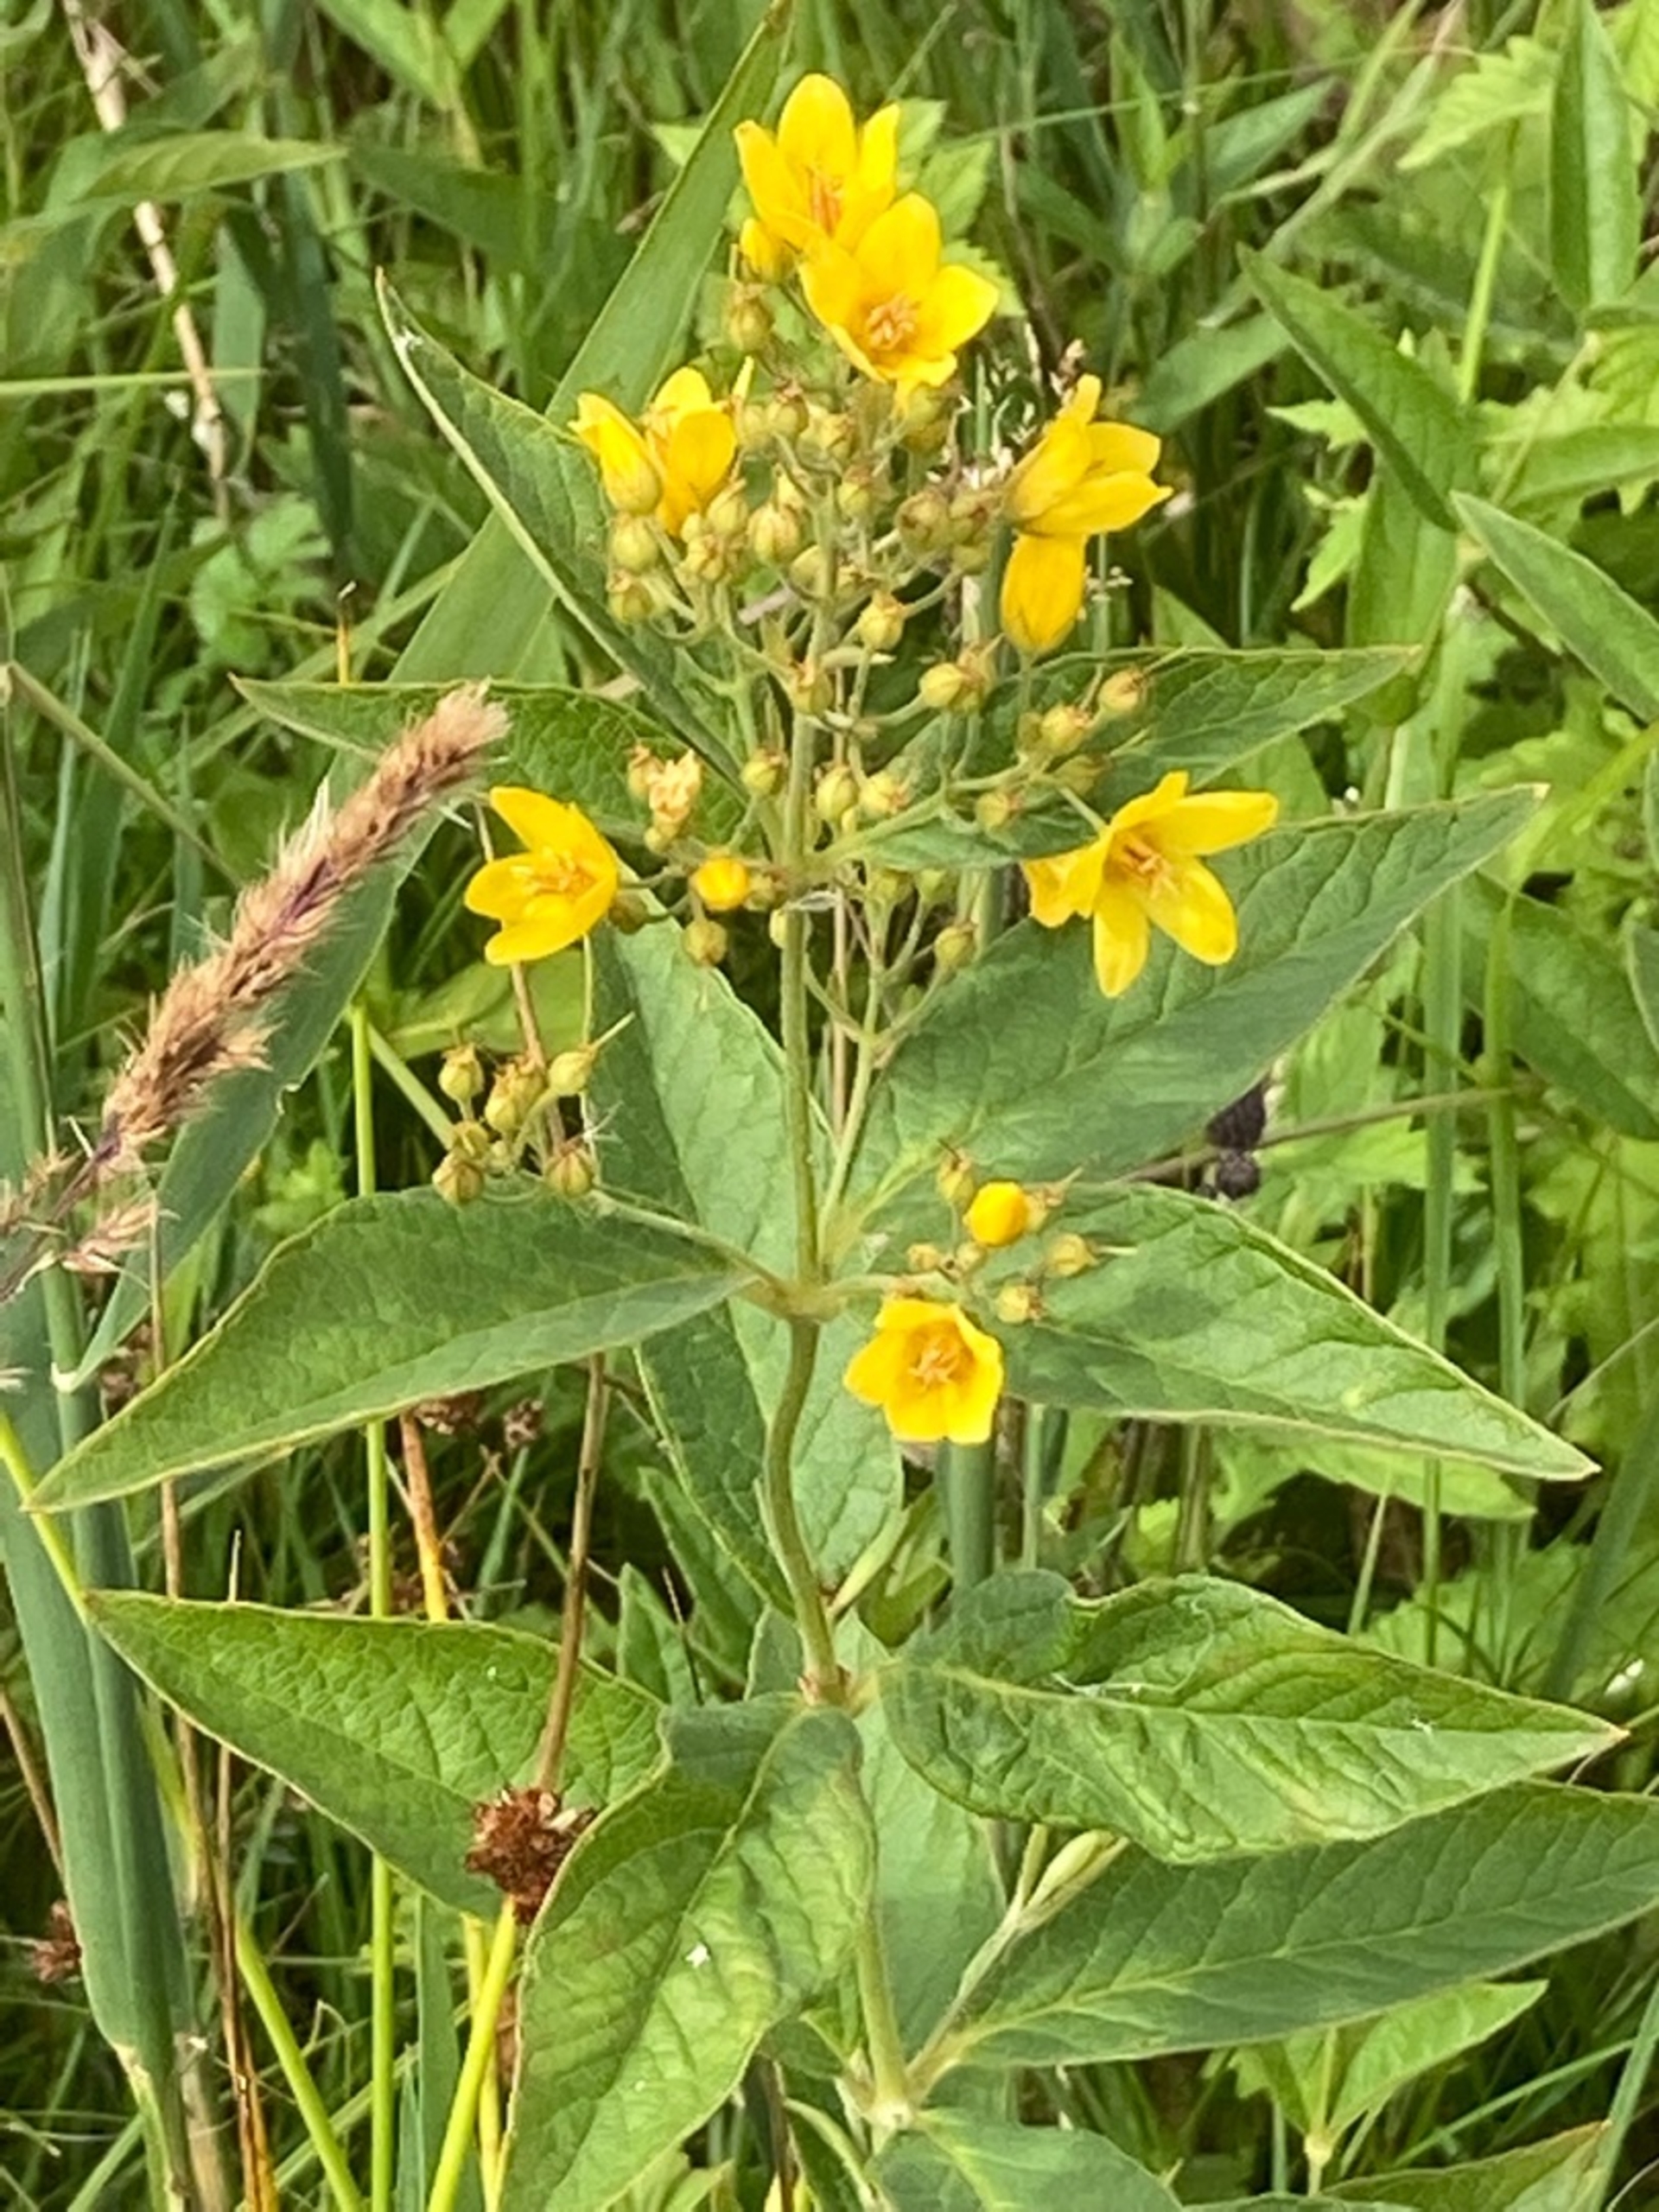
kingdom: Plantae
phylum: Tracheophyta
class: Magnoliopsida
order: Ericales
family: Primulaceae
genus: Lysimachia
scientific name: Lysimachia vulgaris
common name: Almindelig fredløs
